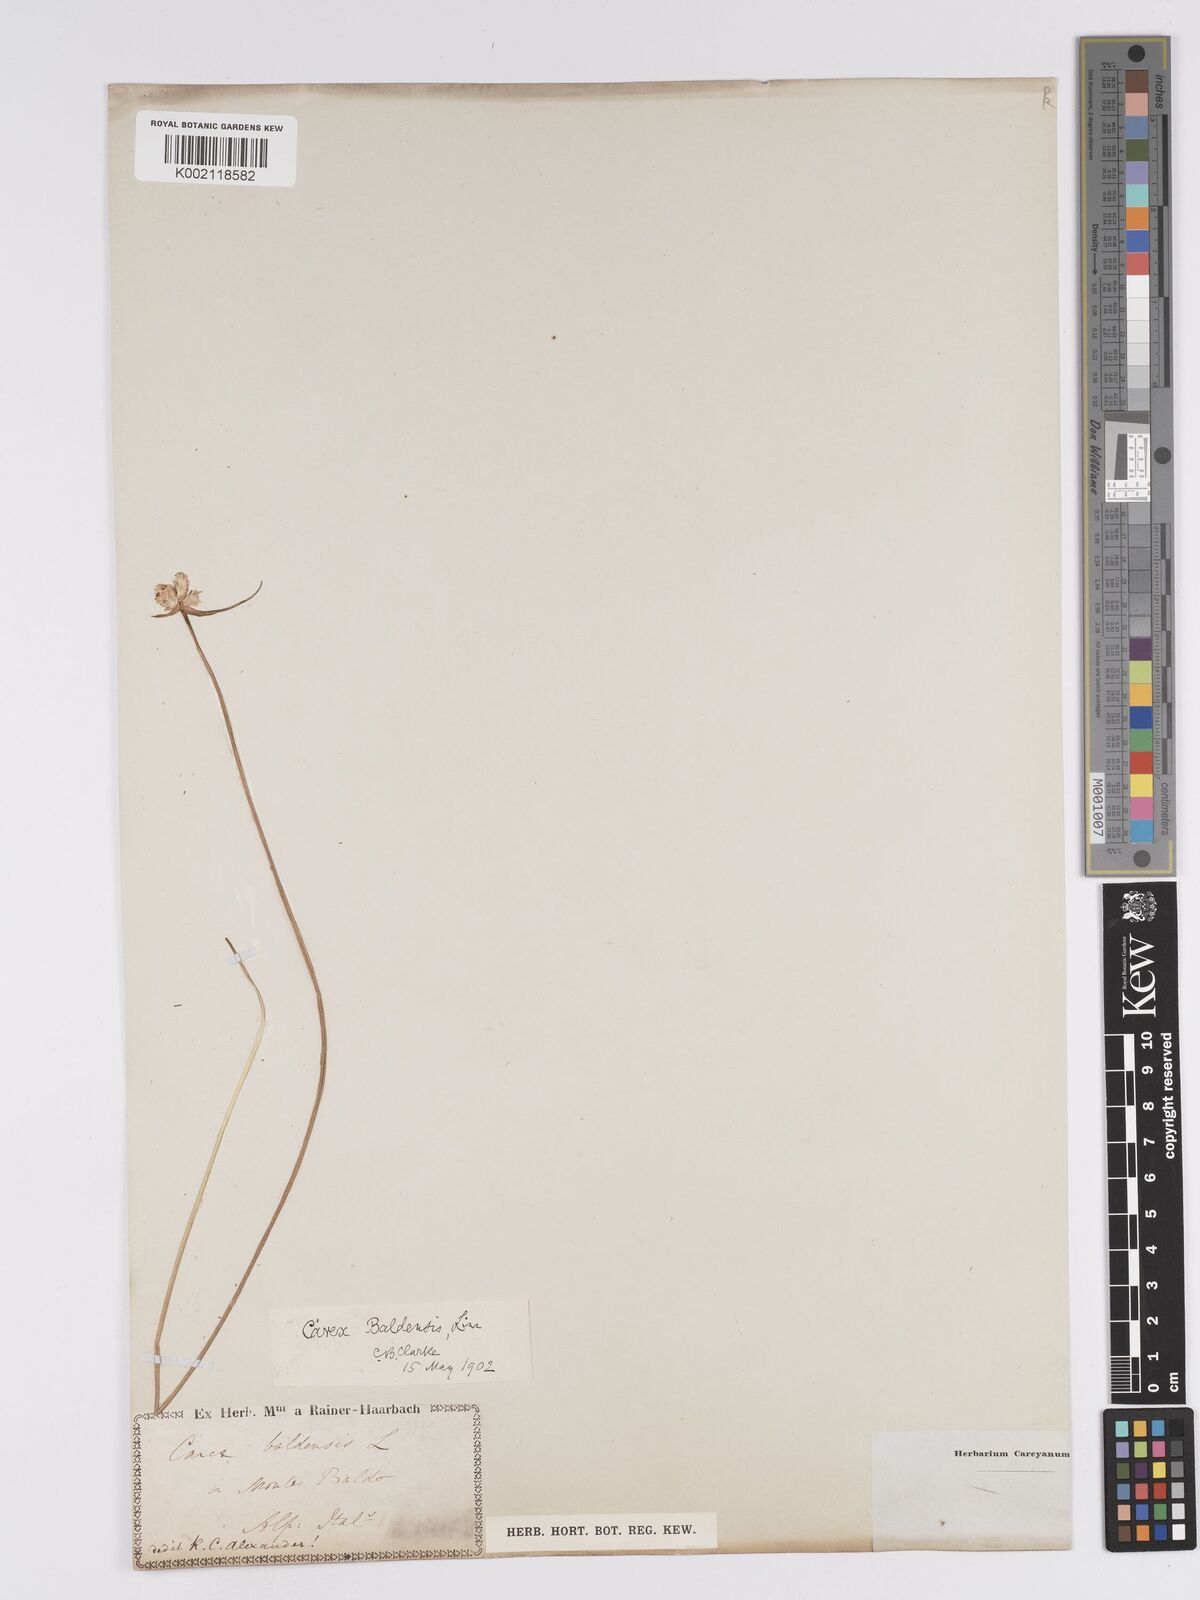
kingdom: Plantae
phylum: Tracheophyta
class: Liliopsida
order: Poales
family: Cyperaceae
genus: Carex
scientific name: Carex baldensis
